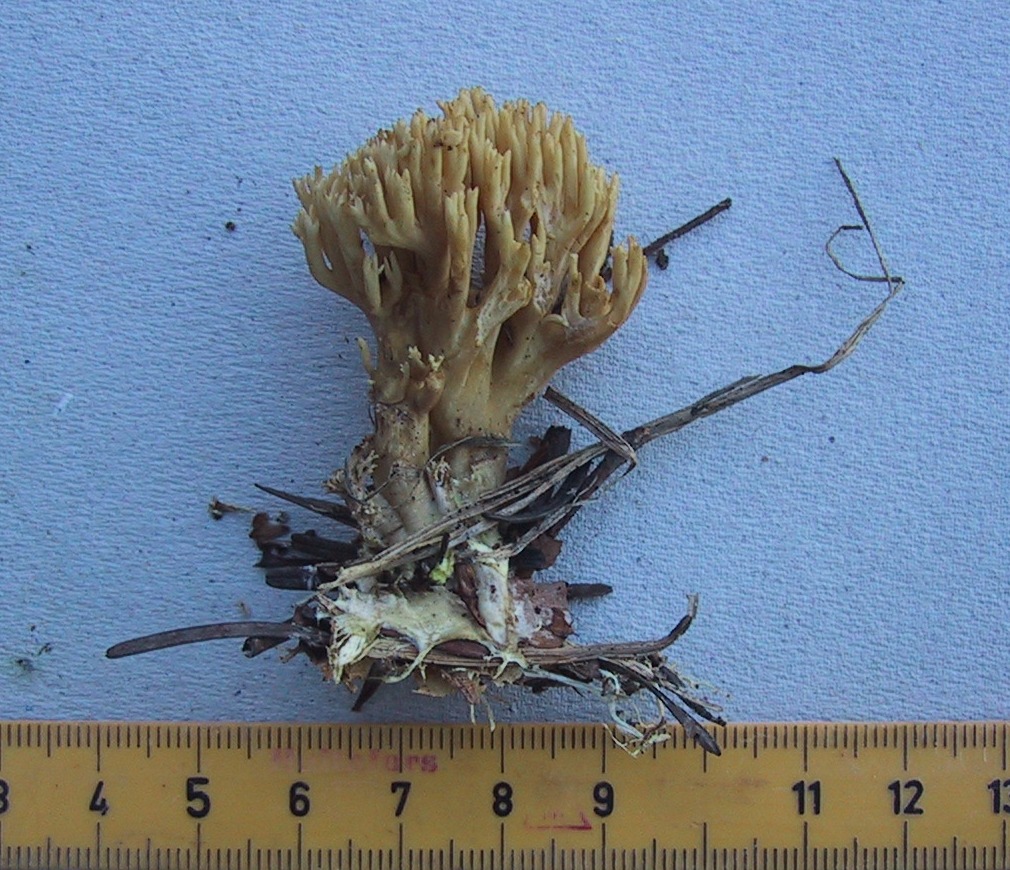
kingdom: Fungi
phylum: Basidiomycota
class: Agaricomycetes
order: Gomphales
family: Gomphaceae
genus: Phaeoclavulina
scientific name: Phaeoclavulina eumorpha
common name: gran-koralsvamp
